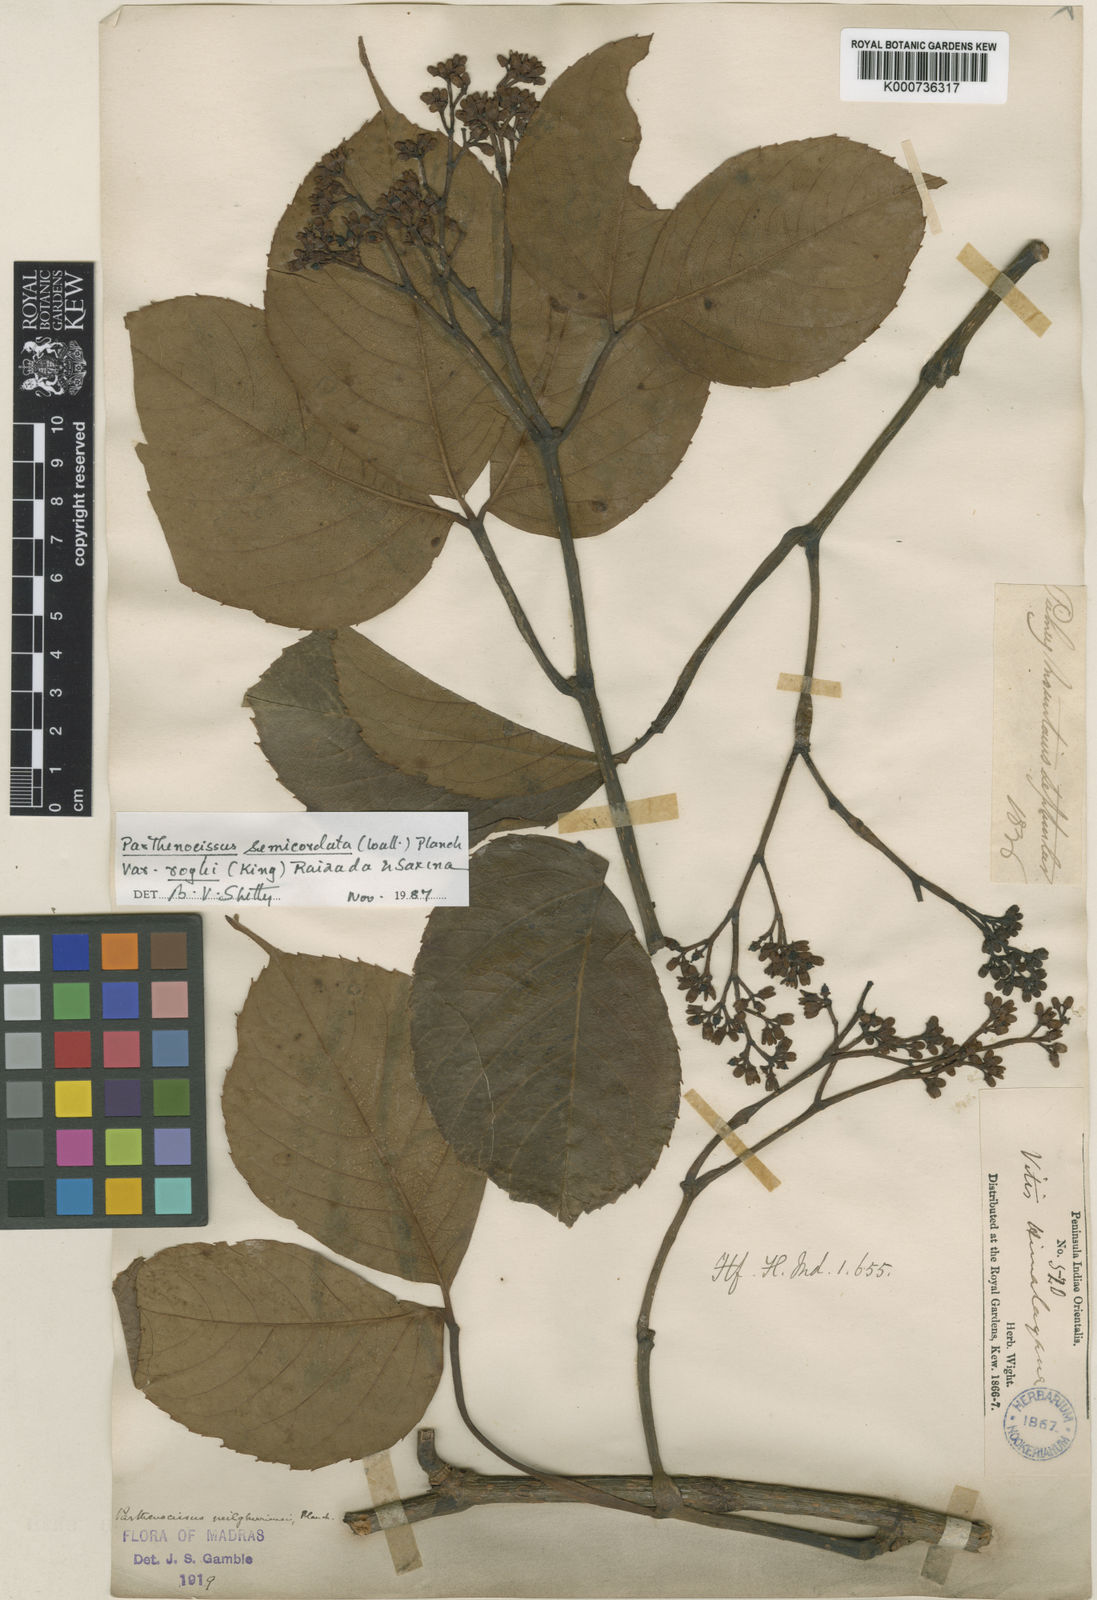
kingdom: Plantae
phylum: Tracheophyta
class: Magnoliopsida
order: Vitales
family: Vitaceae
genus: Parthenocissus
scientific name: Parthenocissus semicordata
